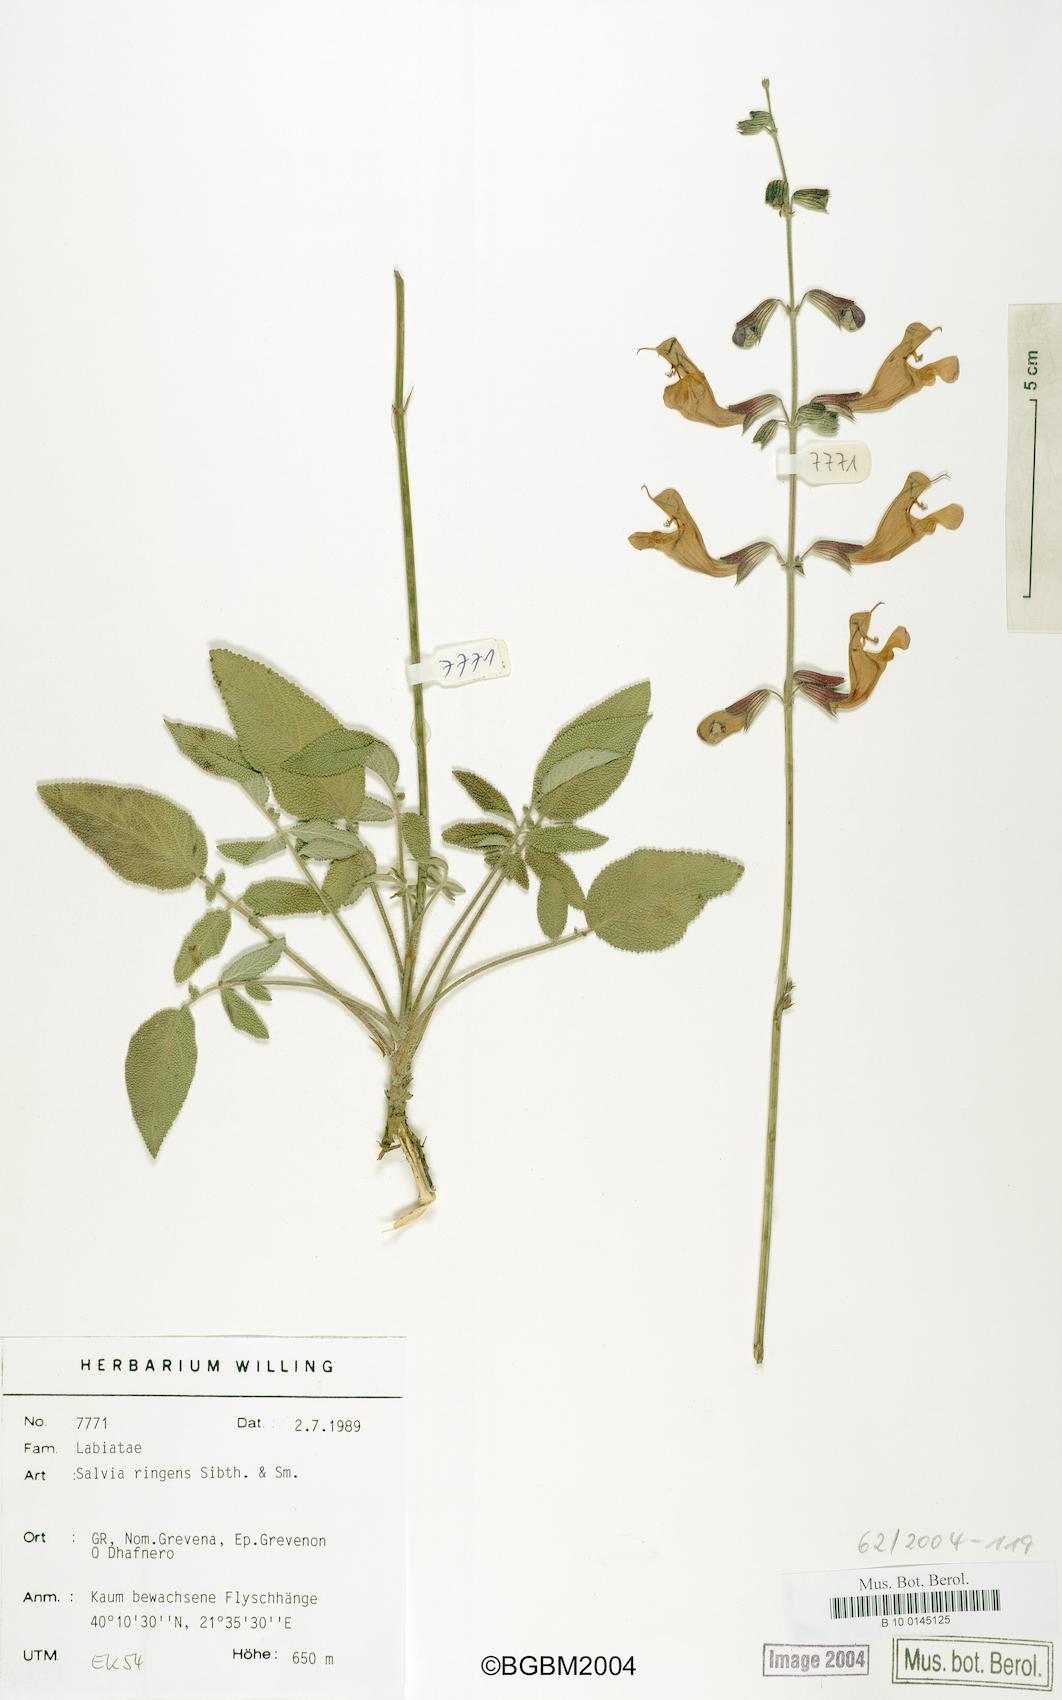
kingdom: Plantae
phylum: Tracheophyta
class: Magnoliopsida
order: Lamiales
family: Lamiaceae
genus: Salvia
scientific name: Salvia ringens
